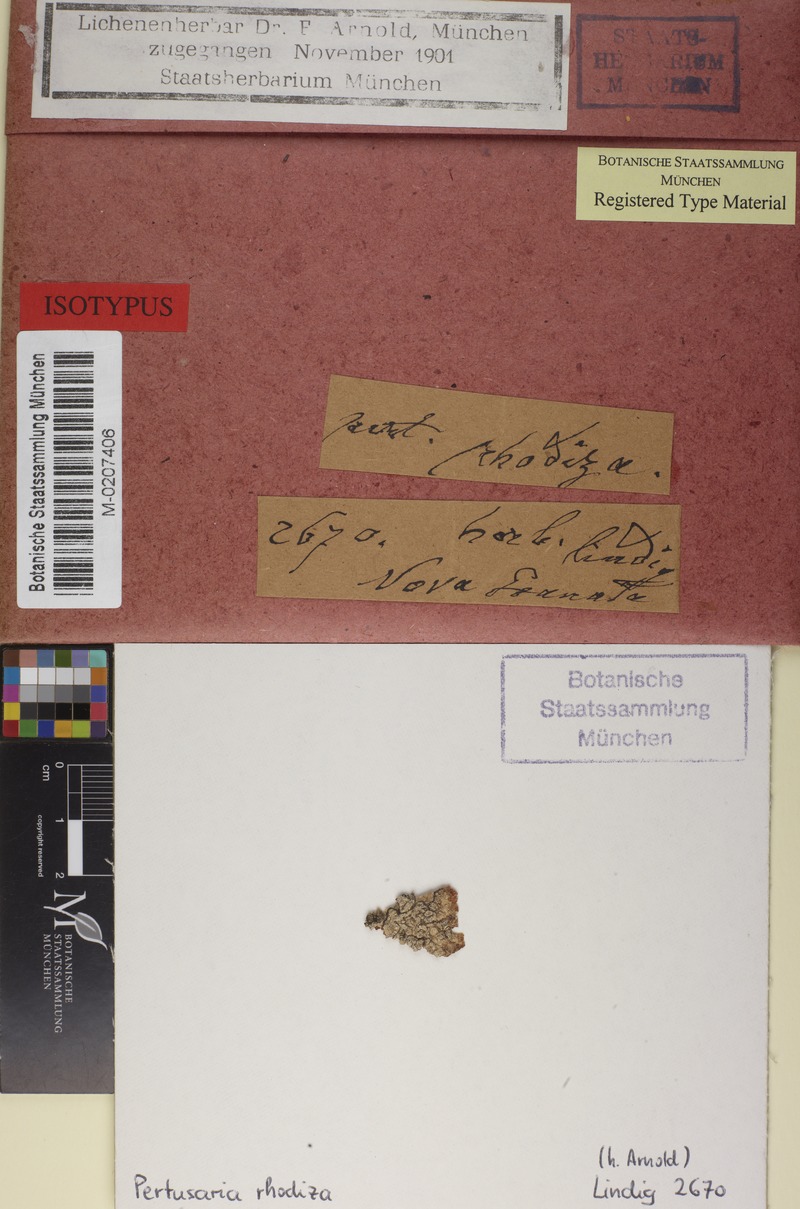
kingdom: Fungi
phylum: Ascomycota
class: Lecanoromycetes
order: Pertusariales
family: Pertusariaceae
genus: Pertusaria
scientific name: Pertusaria tetrathalamia
